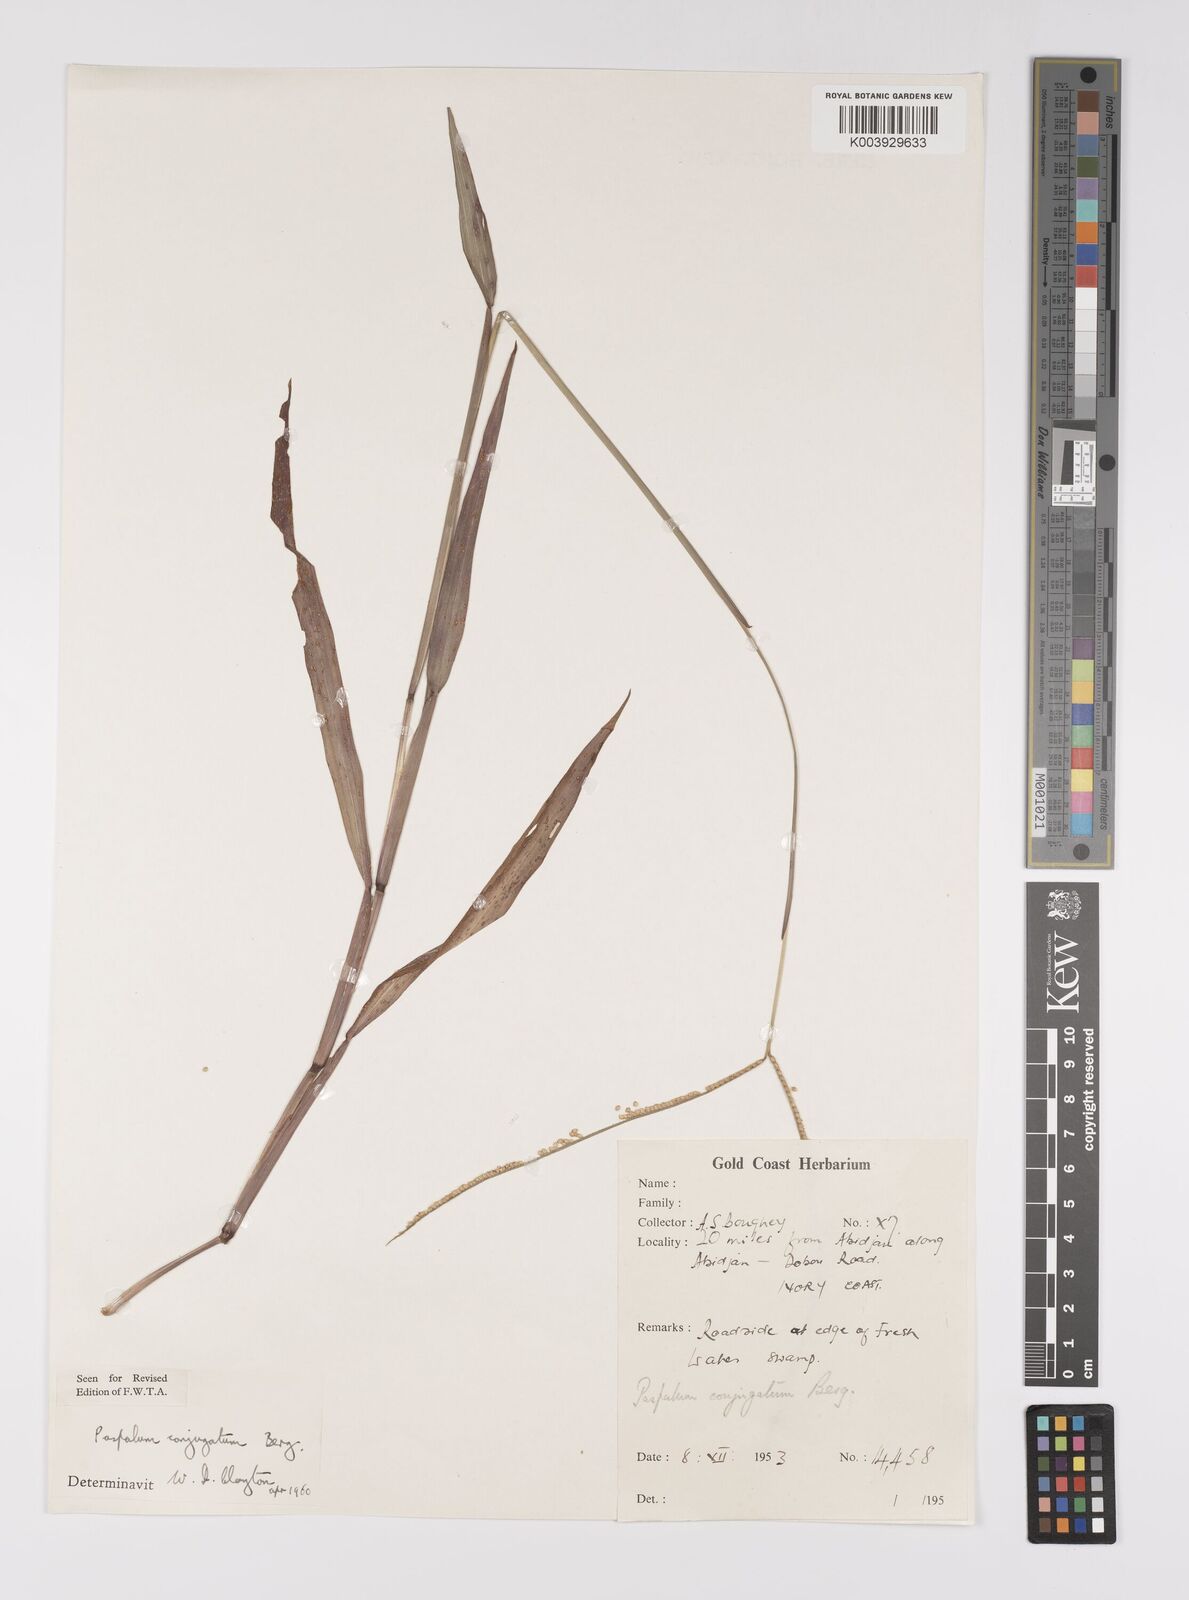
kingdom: Plantae
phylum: Tracheophyta
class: Liliopsida
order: Poales
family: Poaceae
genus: Paspalum
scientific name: Paspalum conjugatum
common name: Hilograss
